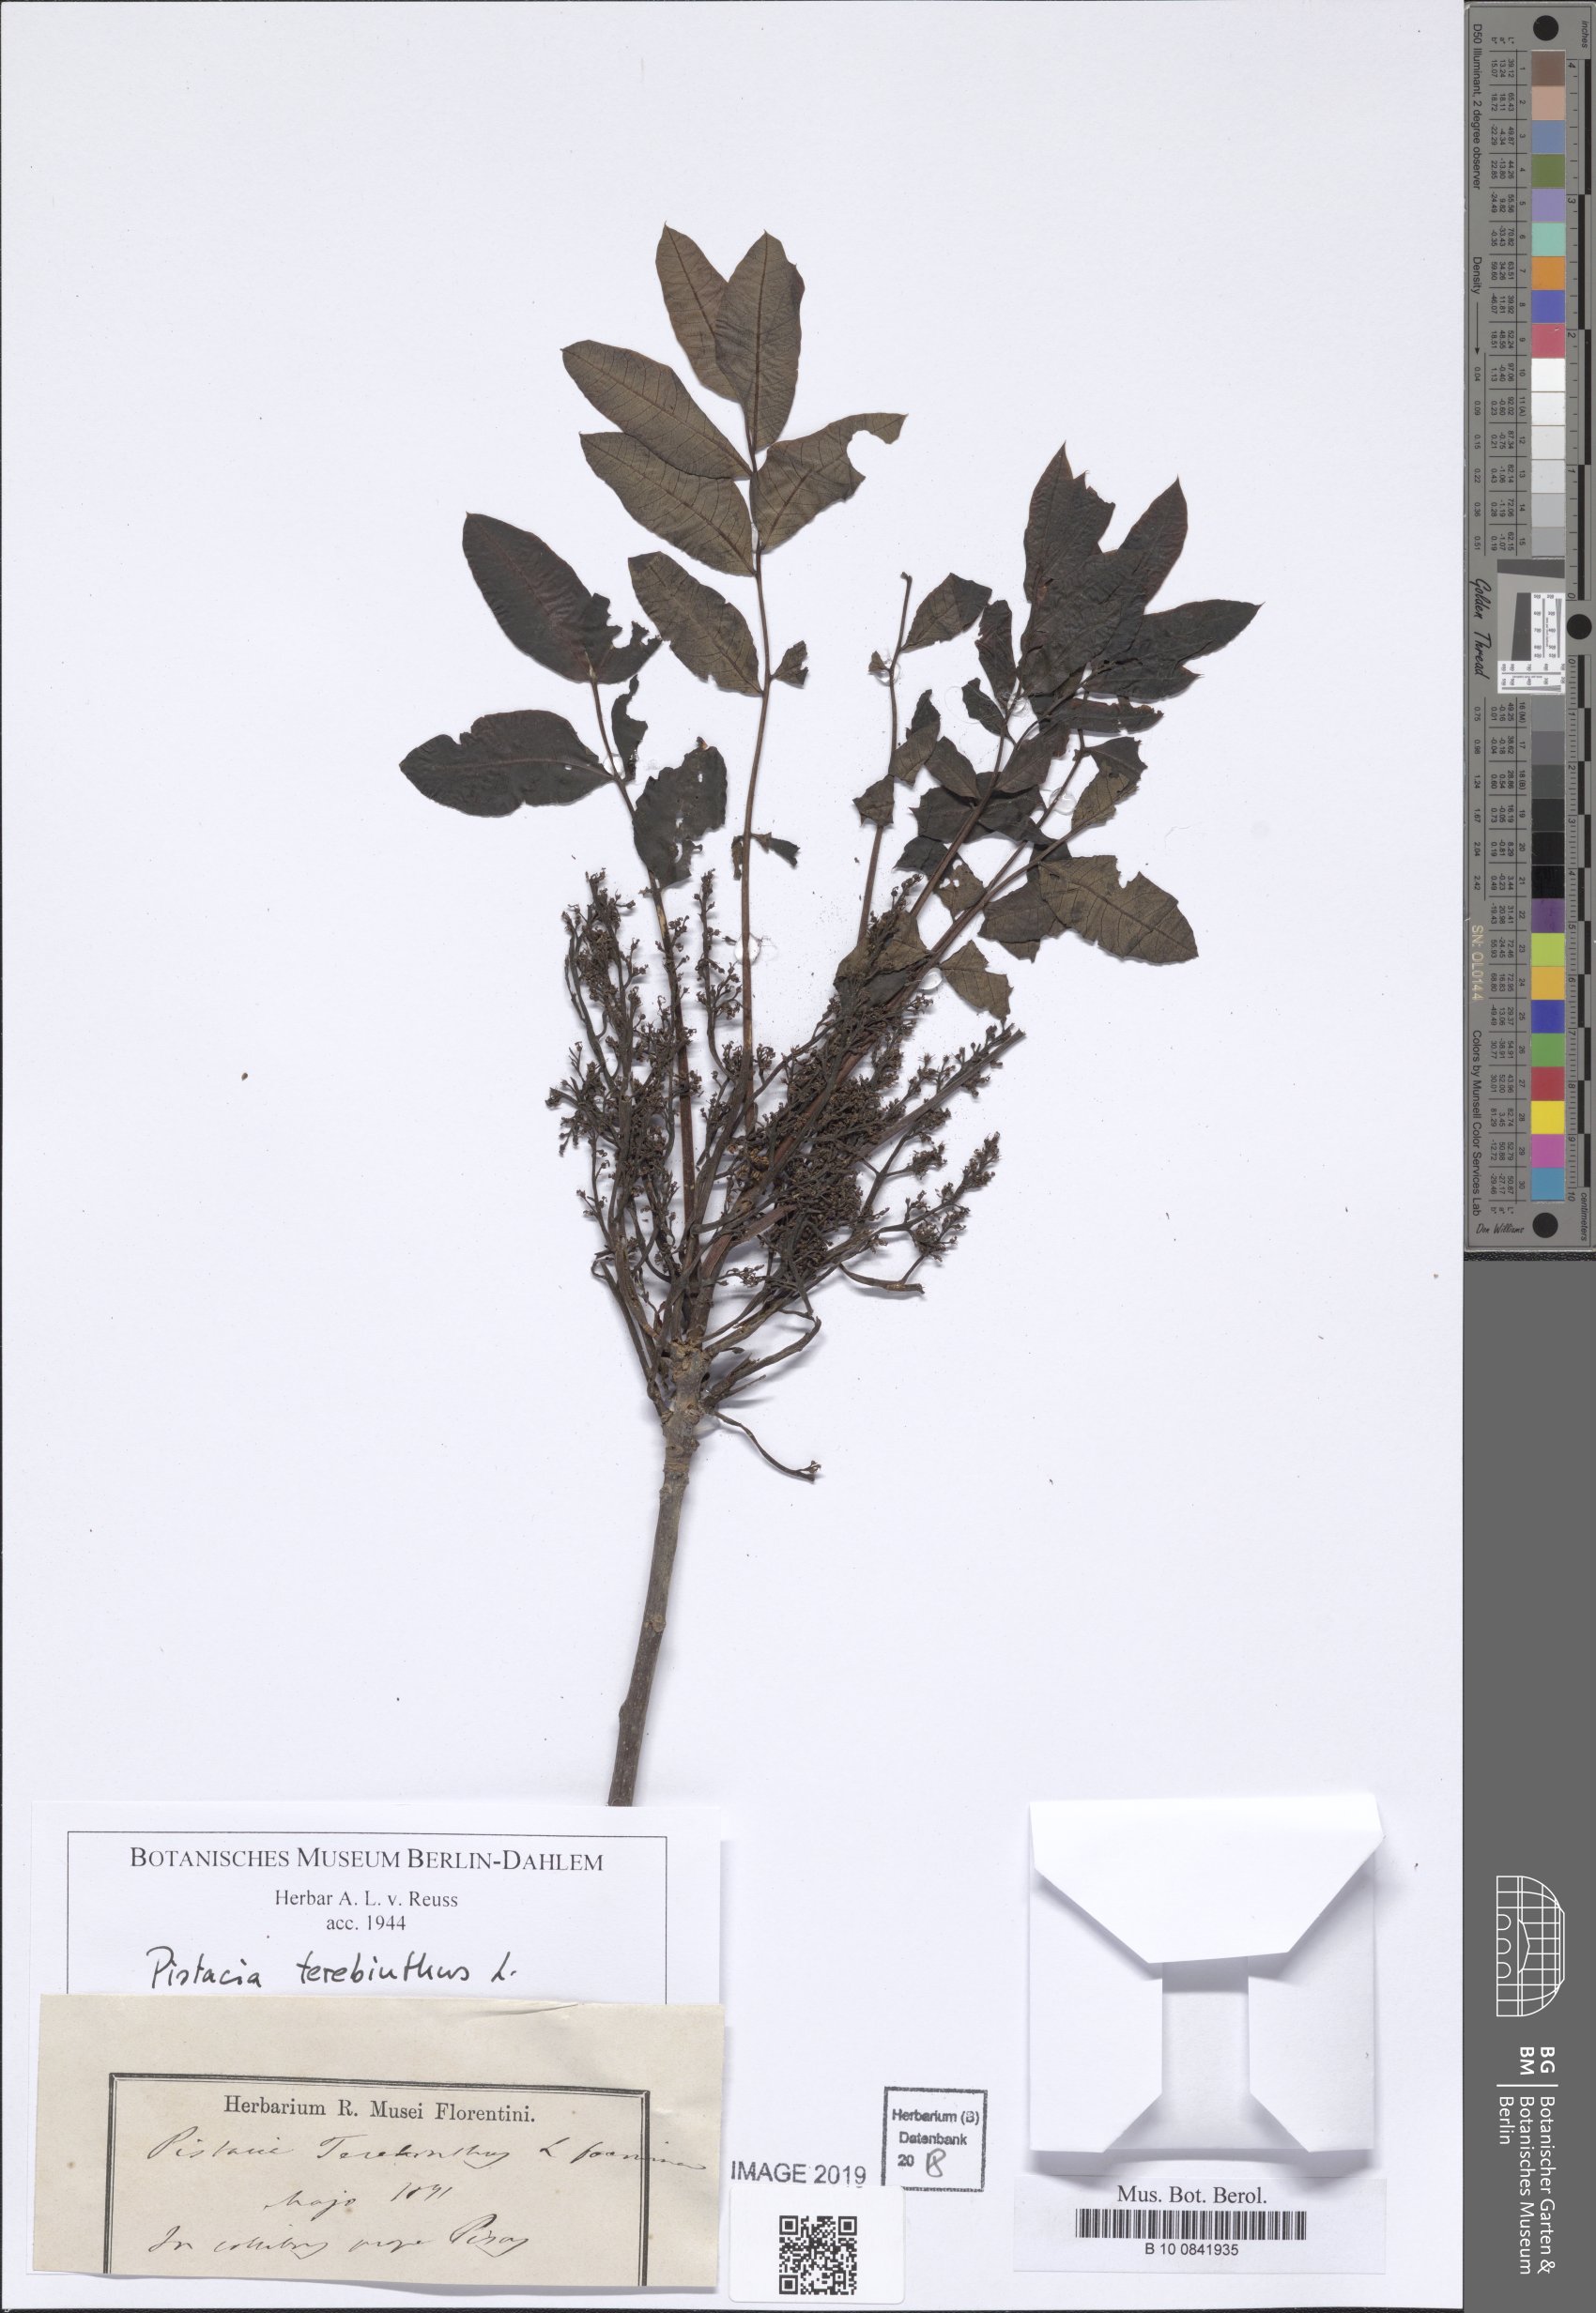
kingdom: Plantae
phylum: Tracheophyta
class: Magnoliopsida
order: Sapindales
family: Anacardiaceae
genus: Pistacia
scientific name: Pistacia terebinthus
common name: Terebinth
